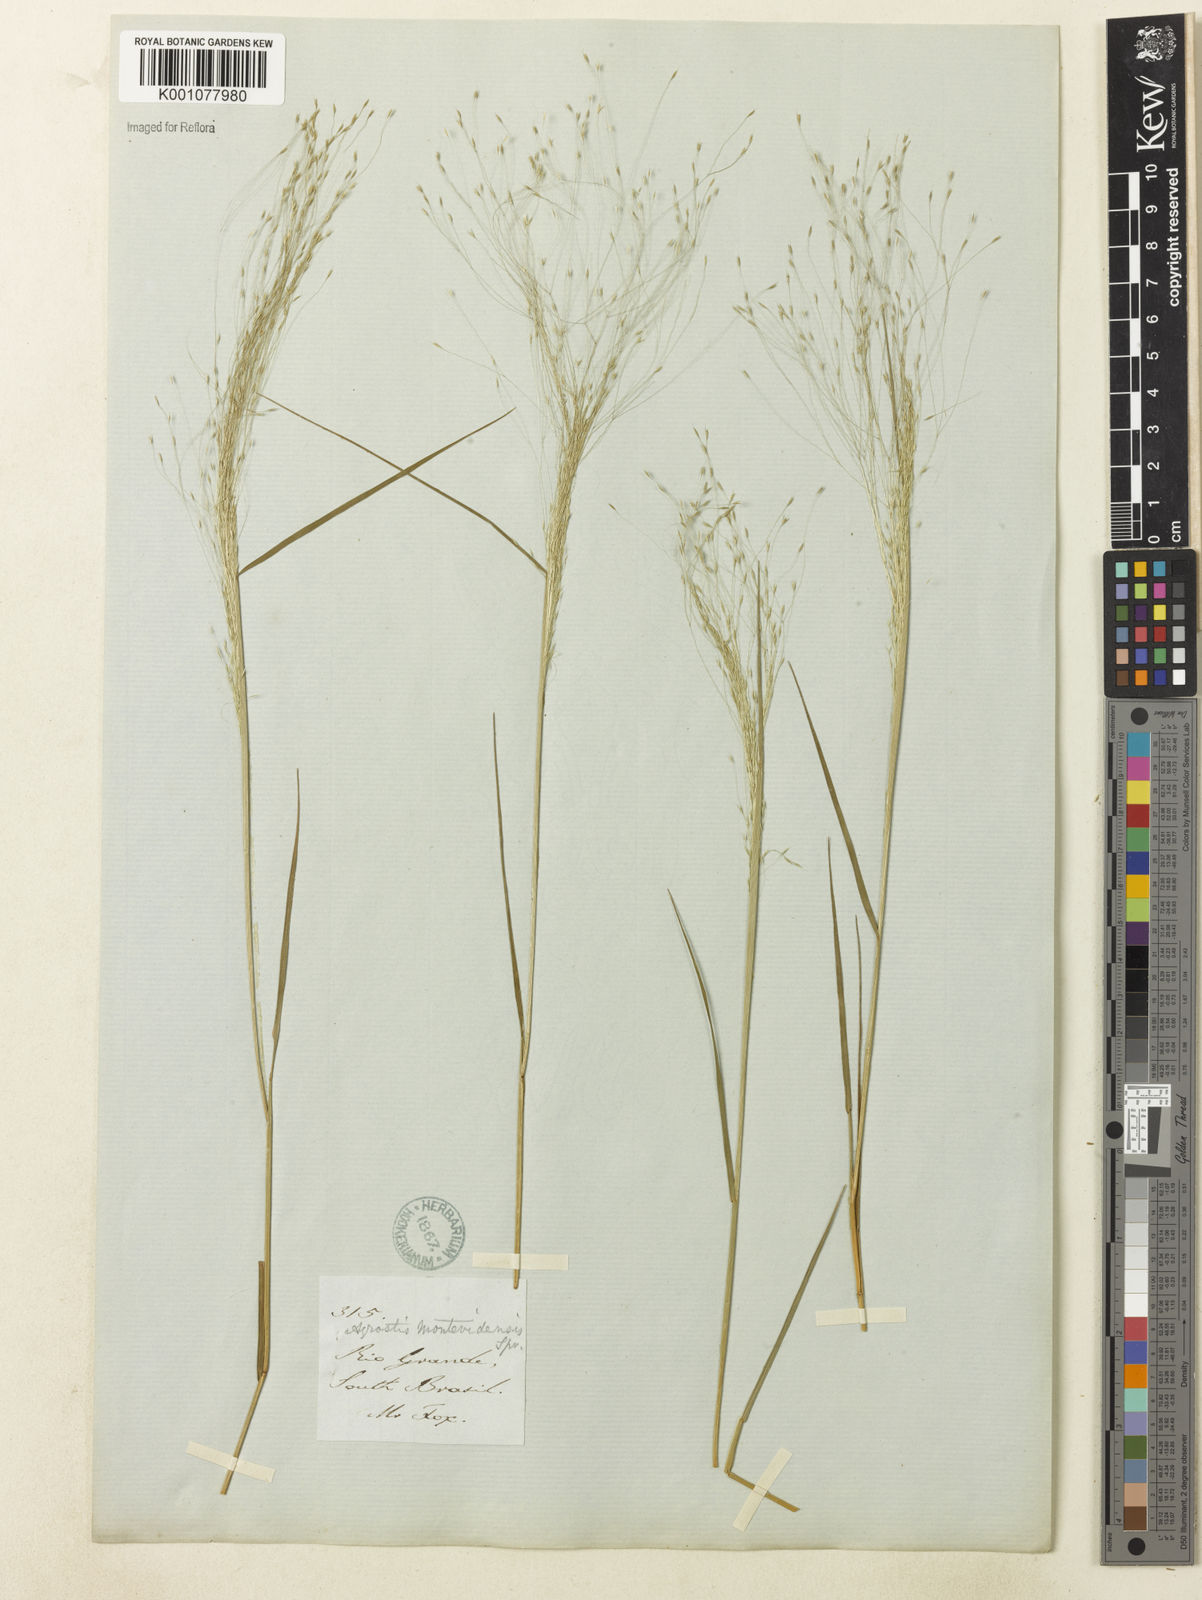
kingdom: Plantae
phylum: Tracheophyta
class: Liliopsida
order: Poales
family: Poaceae
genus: Agrostis
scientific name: Agrostis montevidensis
